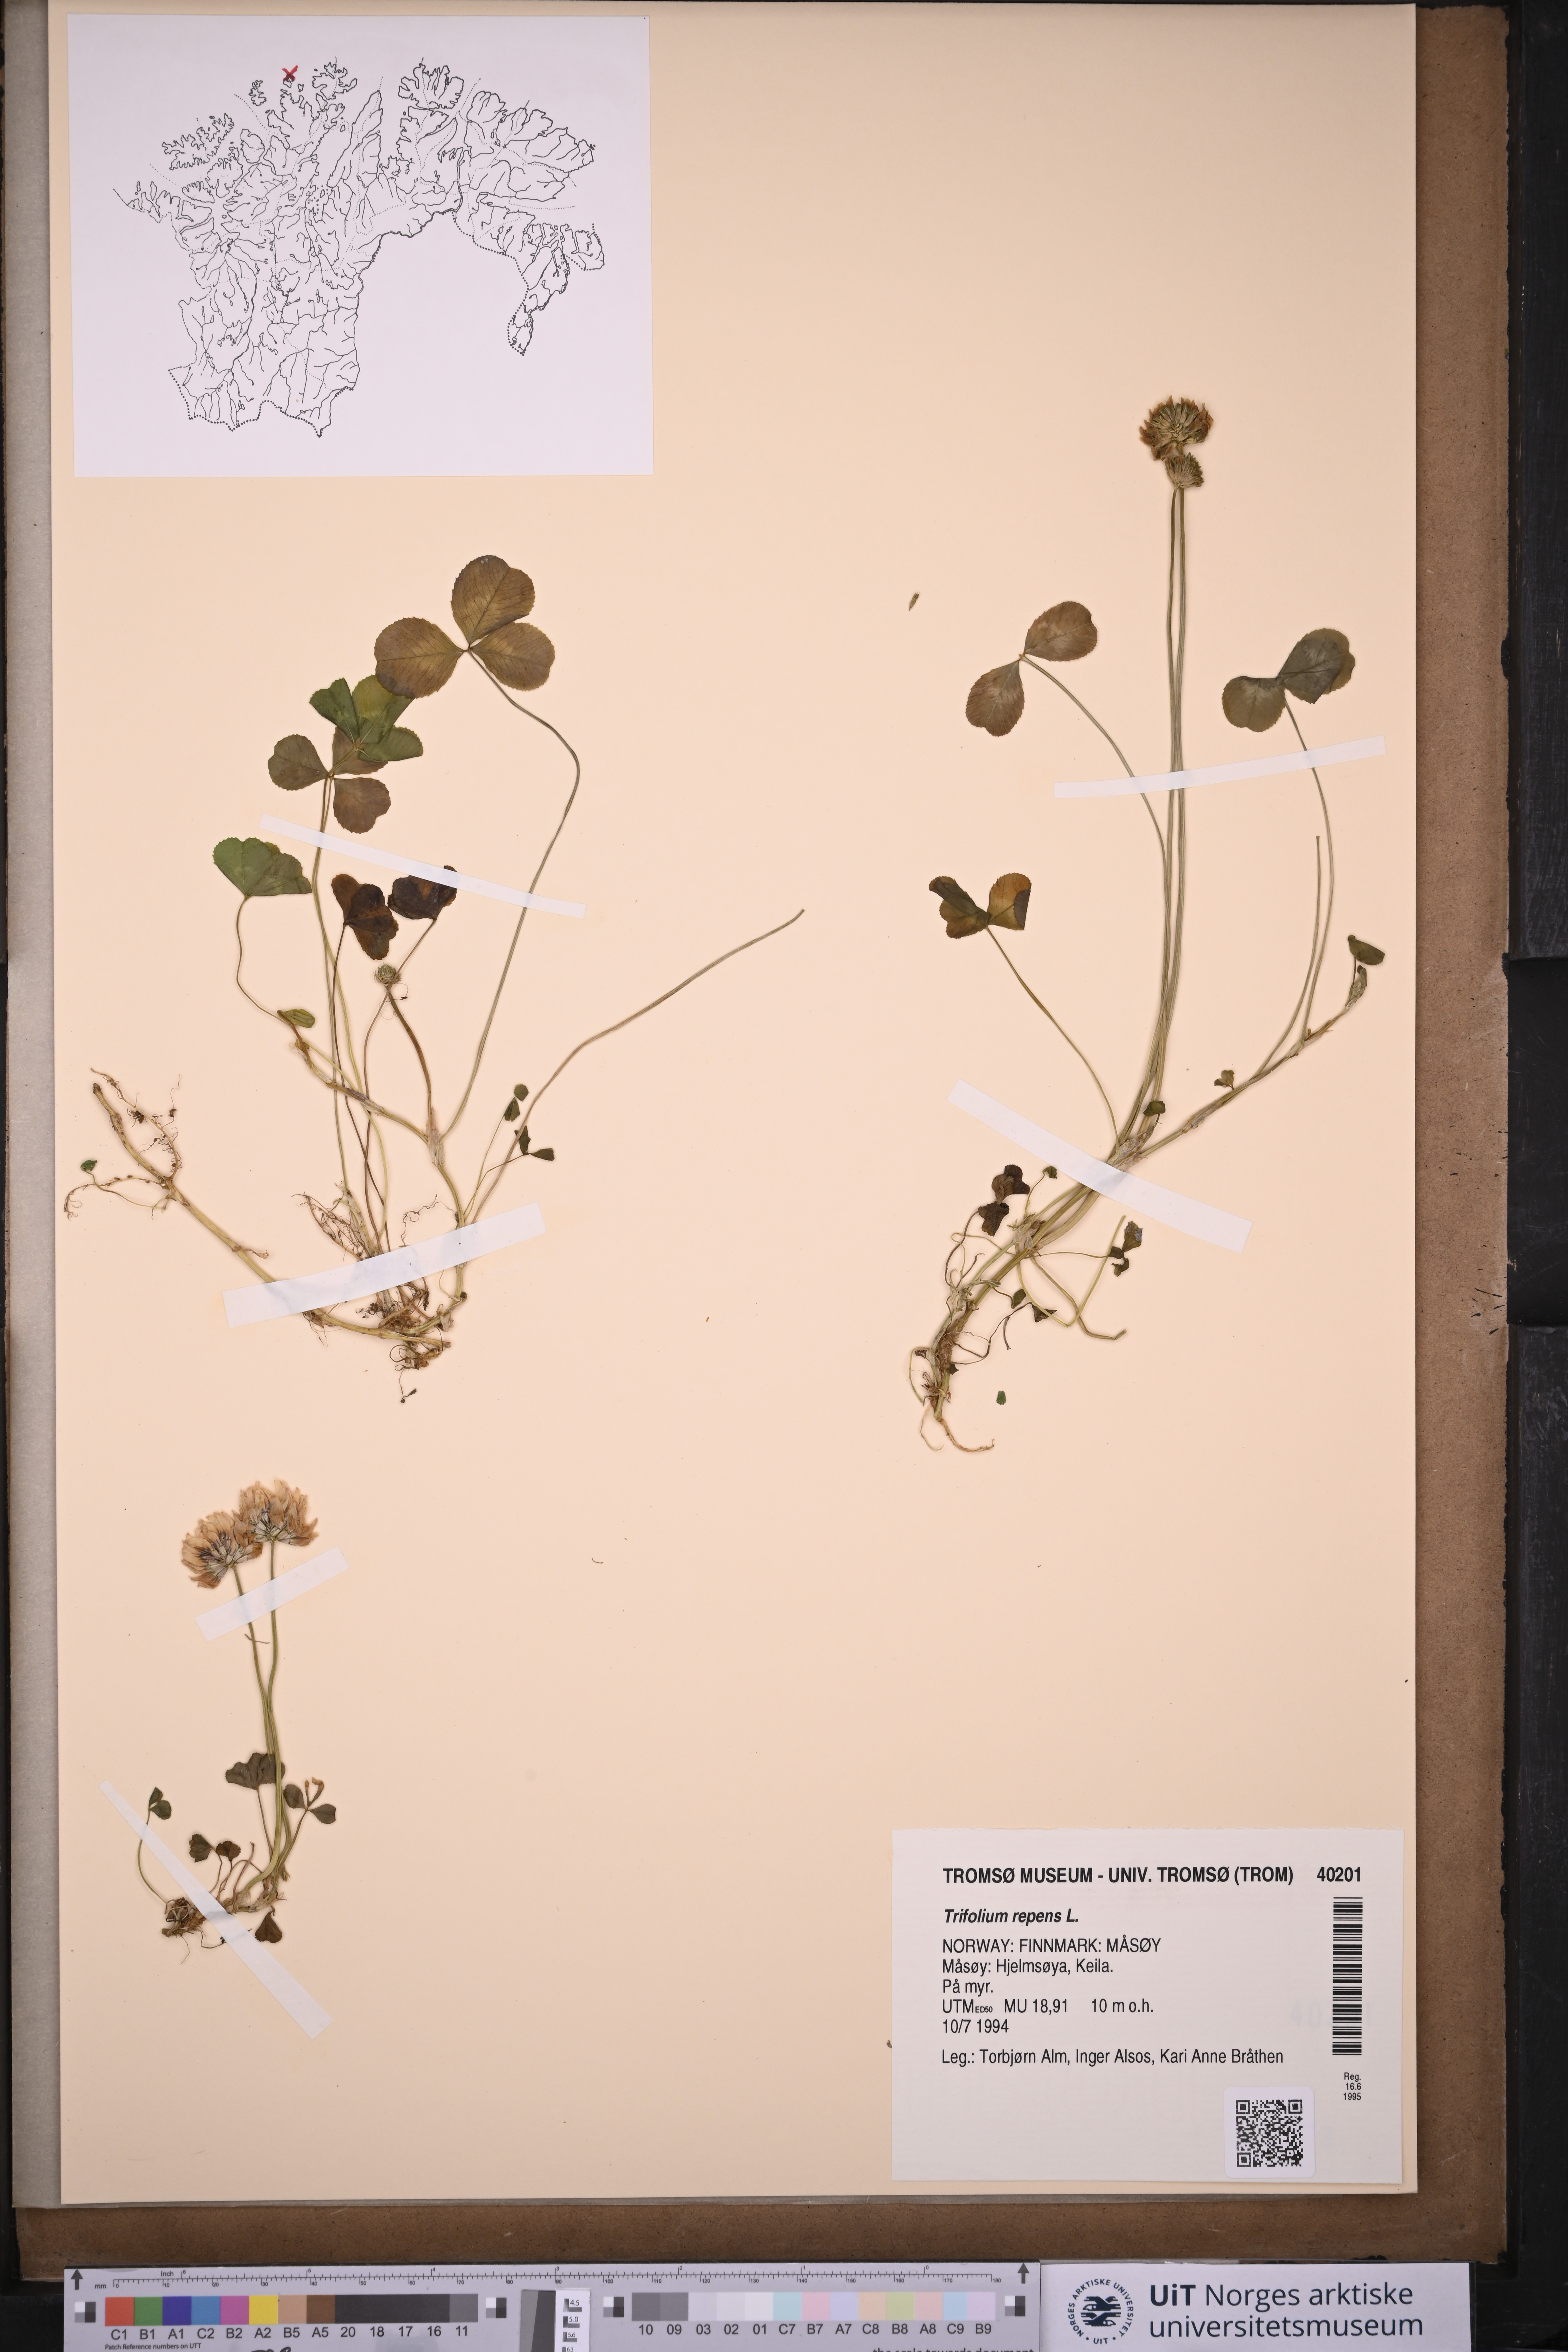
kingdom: Plantae
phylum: Tracheophyta
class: Magnoliopsida
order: Fabales
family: Fabaceae
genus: Trifolium
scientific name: Trifolium repens
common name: White clover
